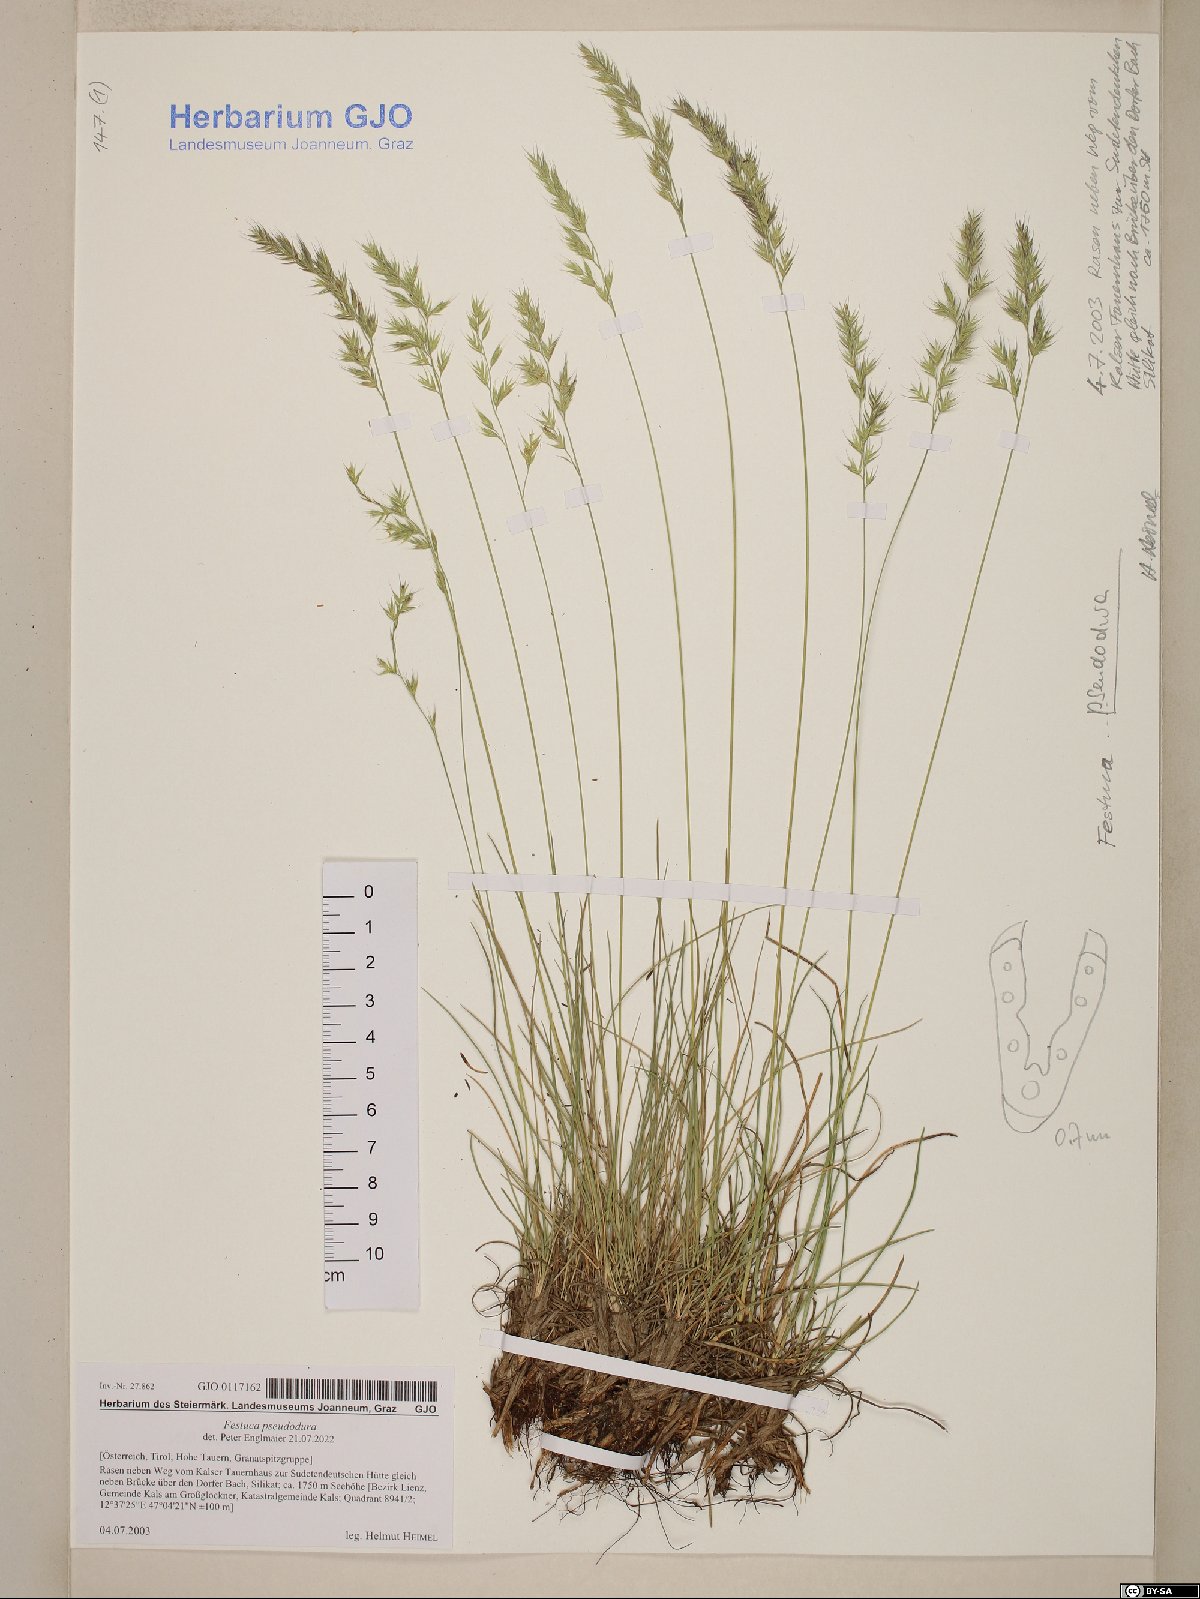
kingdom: Plantae
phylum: Tracheophyta
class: Liliopsida
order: Poales
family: Poaceae
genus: Festuca
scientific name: Festuca pseudodura
